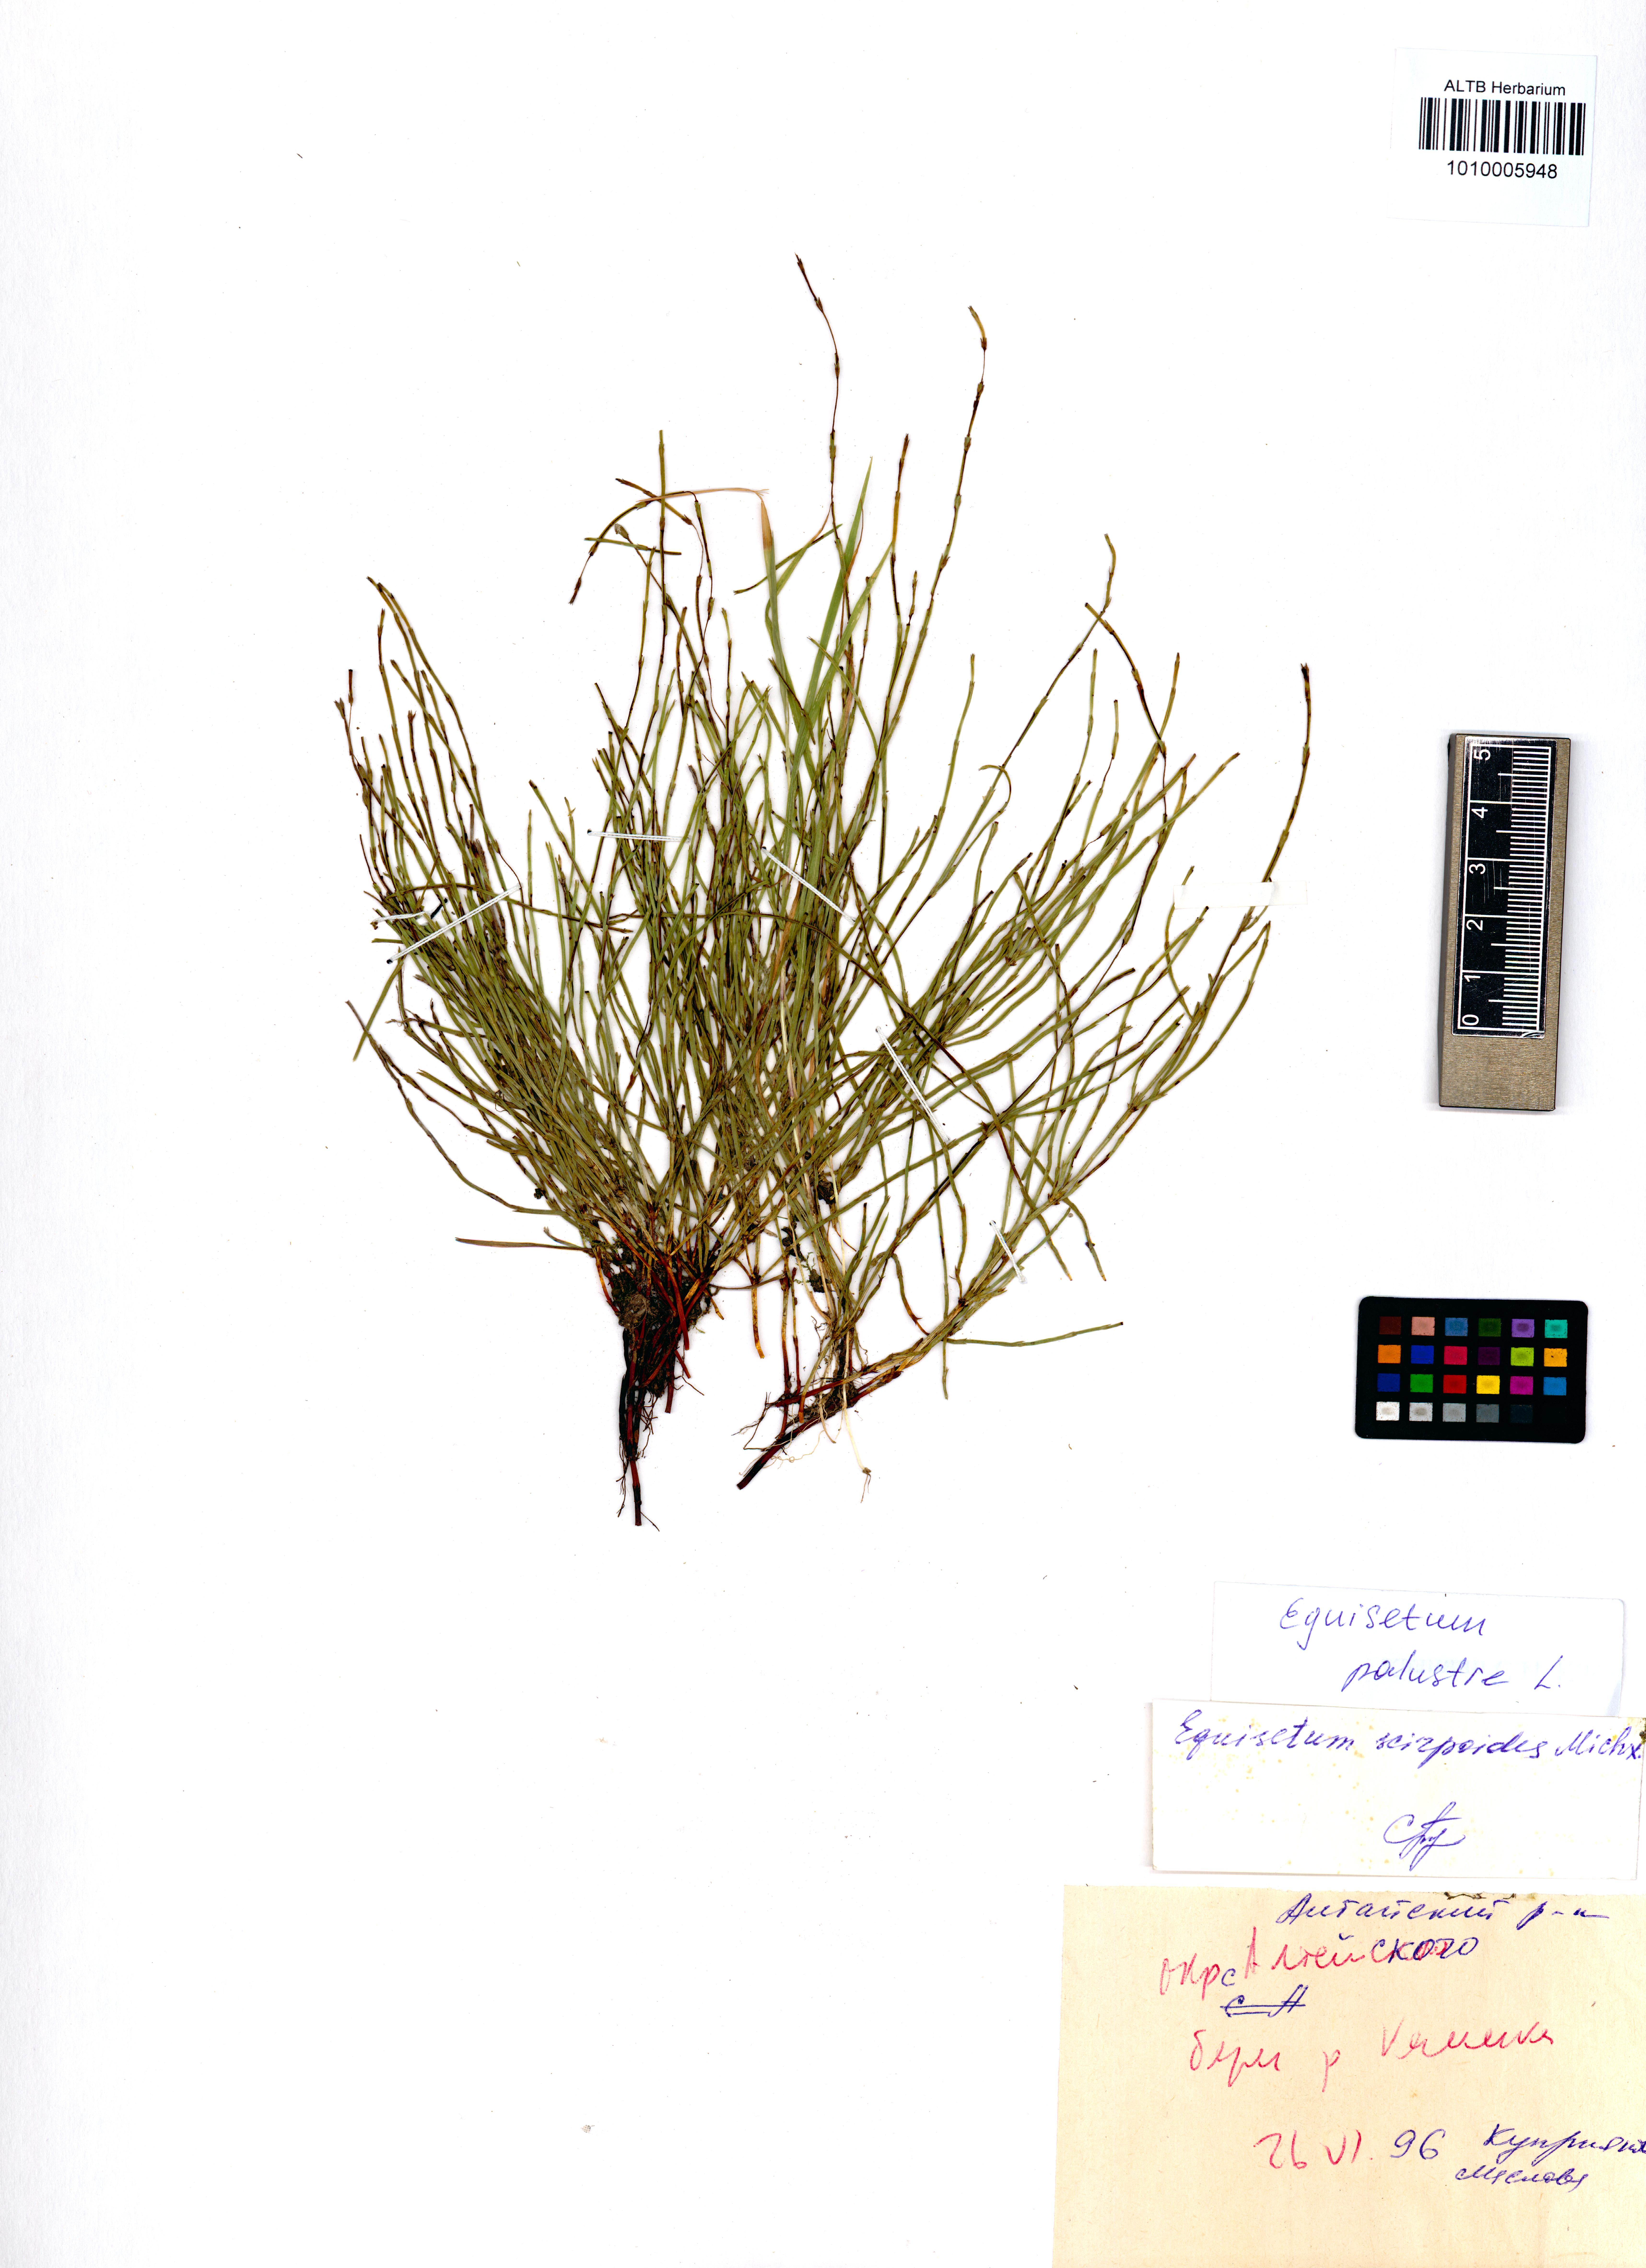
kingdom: Plantae
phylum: Tracheophyta
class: Polypodiopsida
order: Equisetales
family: Equisetaceae
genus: Equisetum
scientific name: Equisetum palustre
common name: Marsh horsetail
